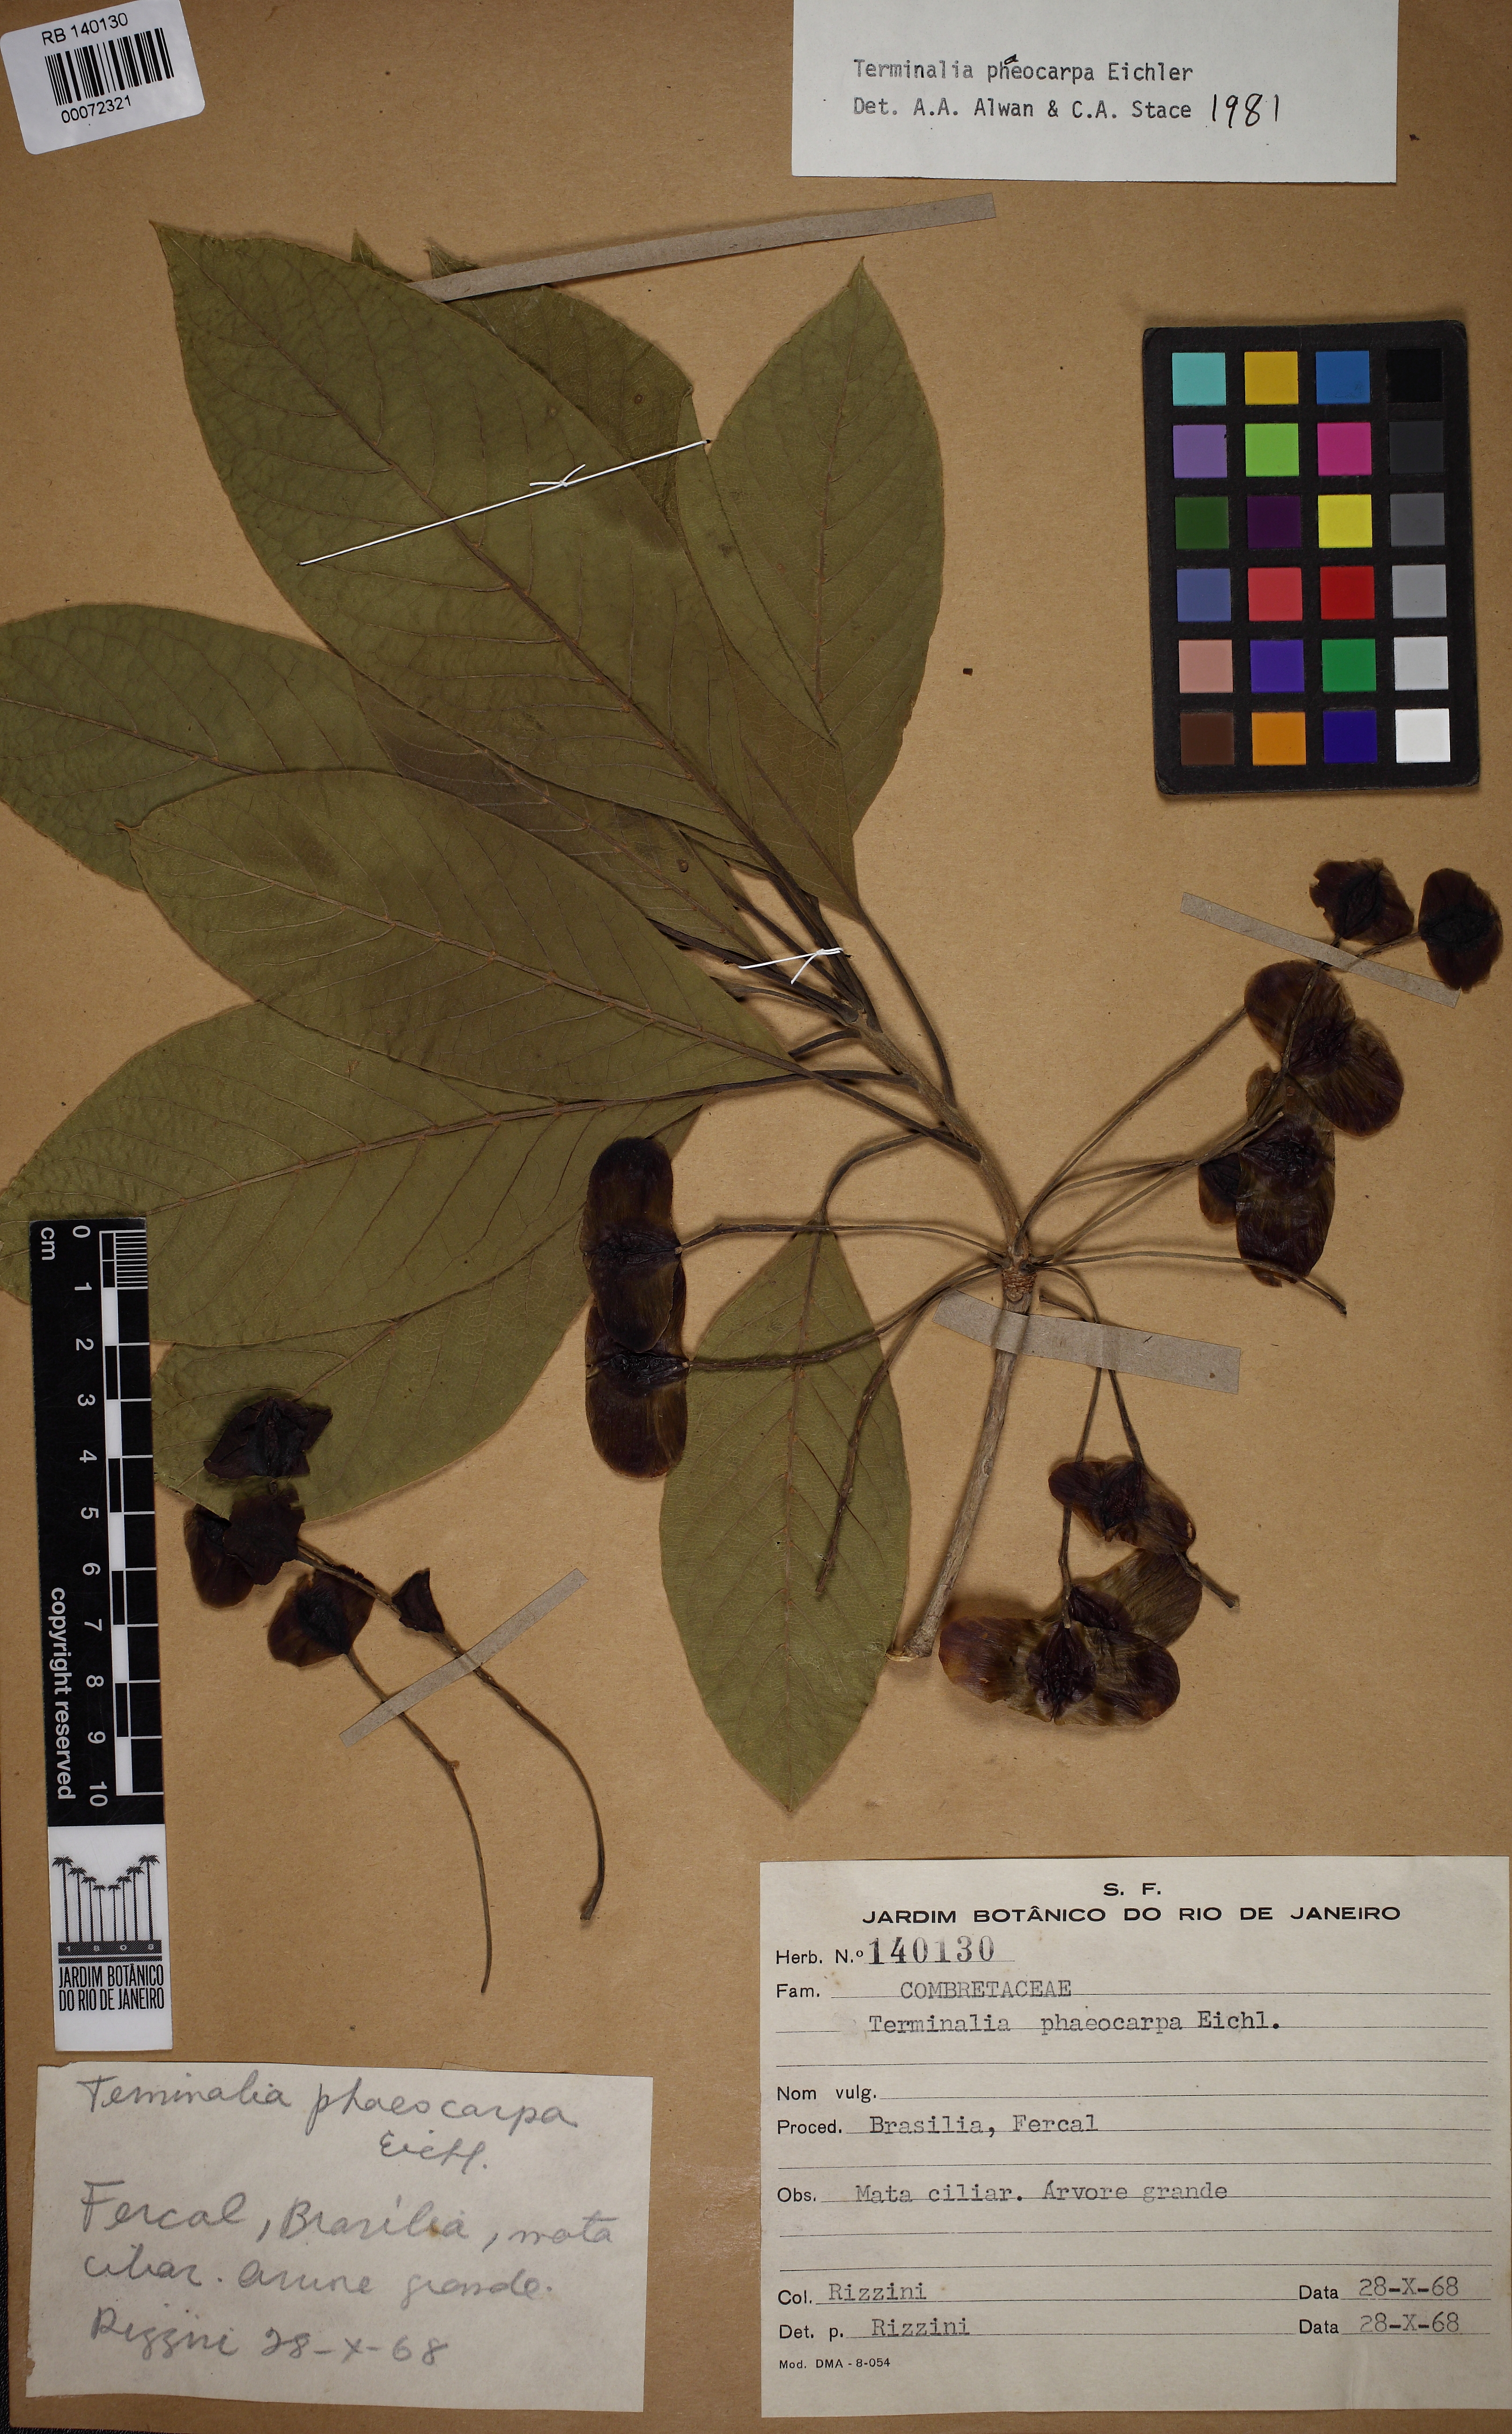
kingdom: Plantae
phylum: Tracheophyta
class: Magnoliopsida
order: Myrtales
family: Combretaceae
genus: Terminalia
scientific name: Terminalia phaeocarpa
